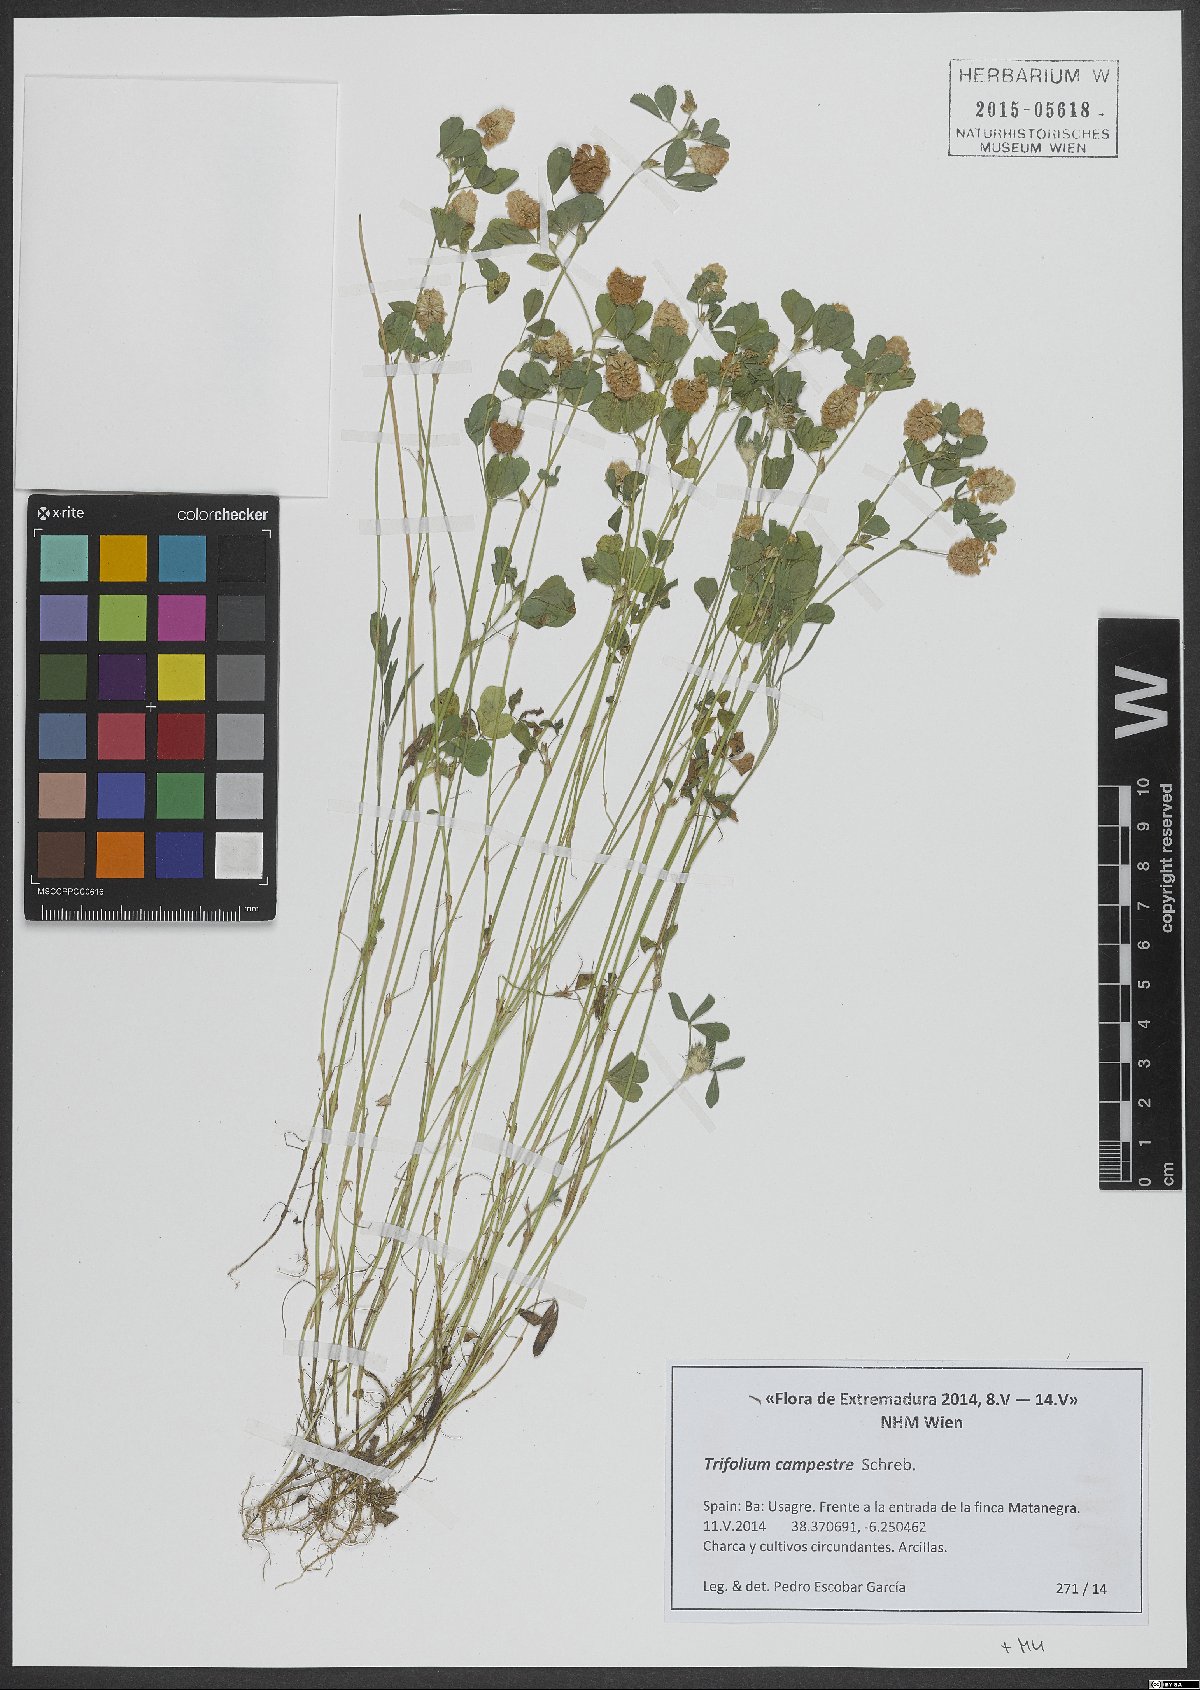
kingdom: Plantae
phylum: Tracheophyta
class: Magnoliopsida
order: Fabales
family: Fabaceae
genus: Trifolium
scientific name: Trifolium campestre
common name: Field clover
